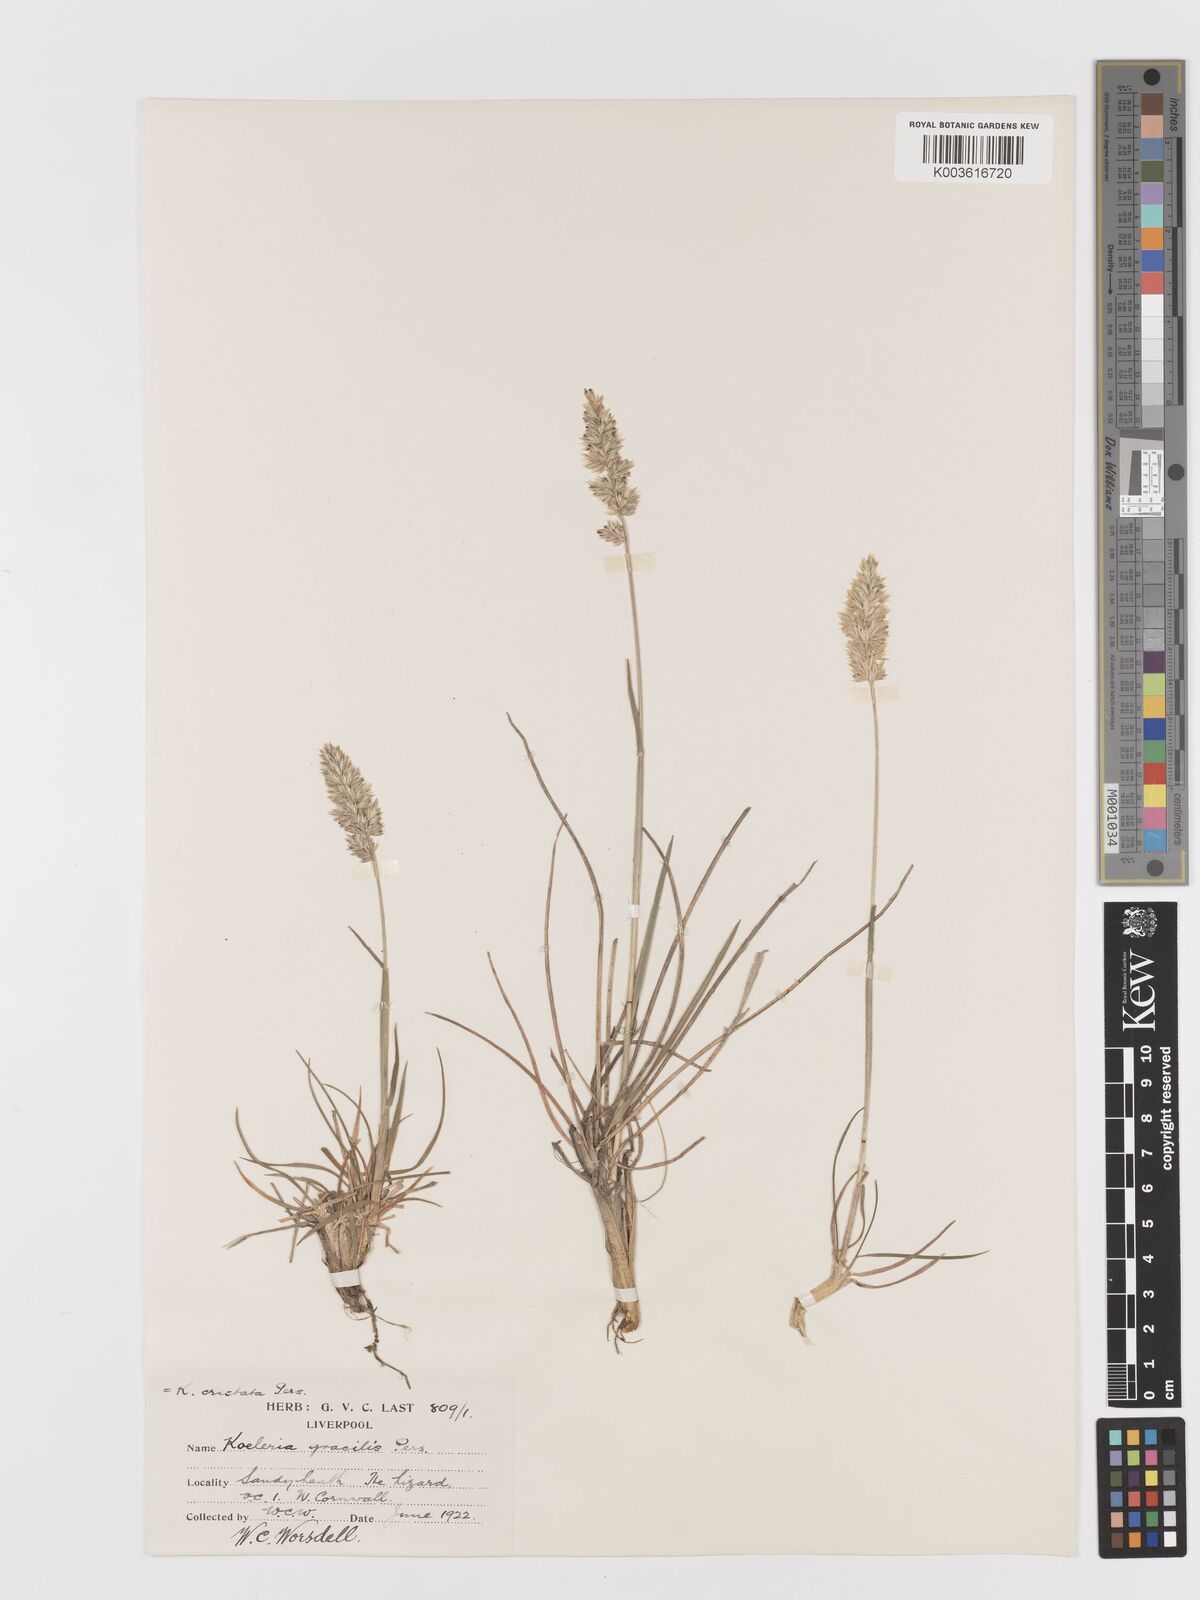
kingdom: Plantae
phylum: Tracheophyta
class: Liliopsida
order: Poales
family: Poaceae
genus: Koeleria
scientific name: Koeleria
